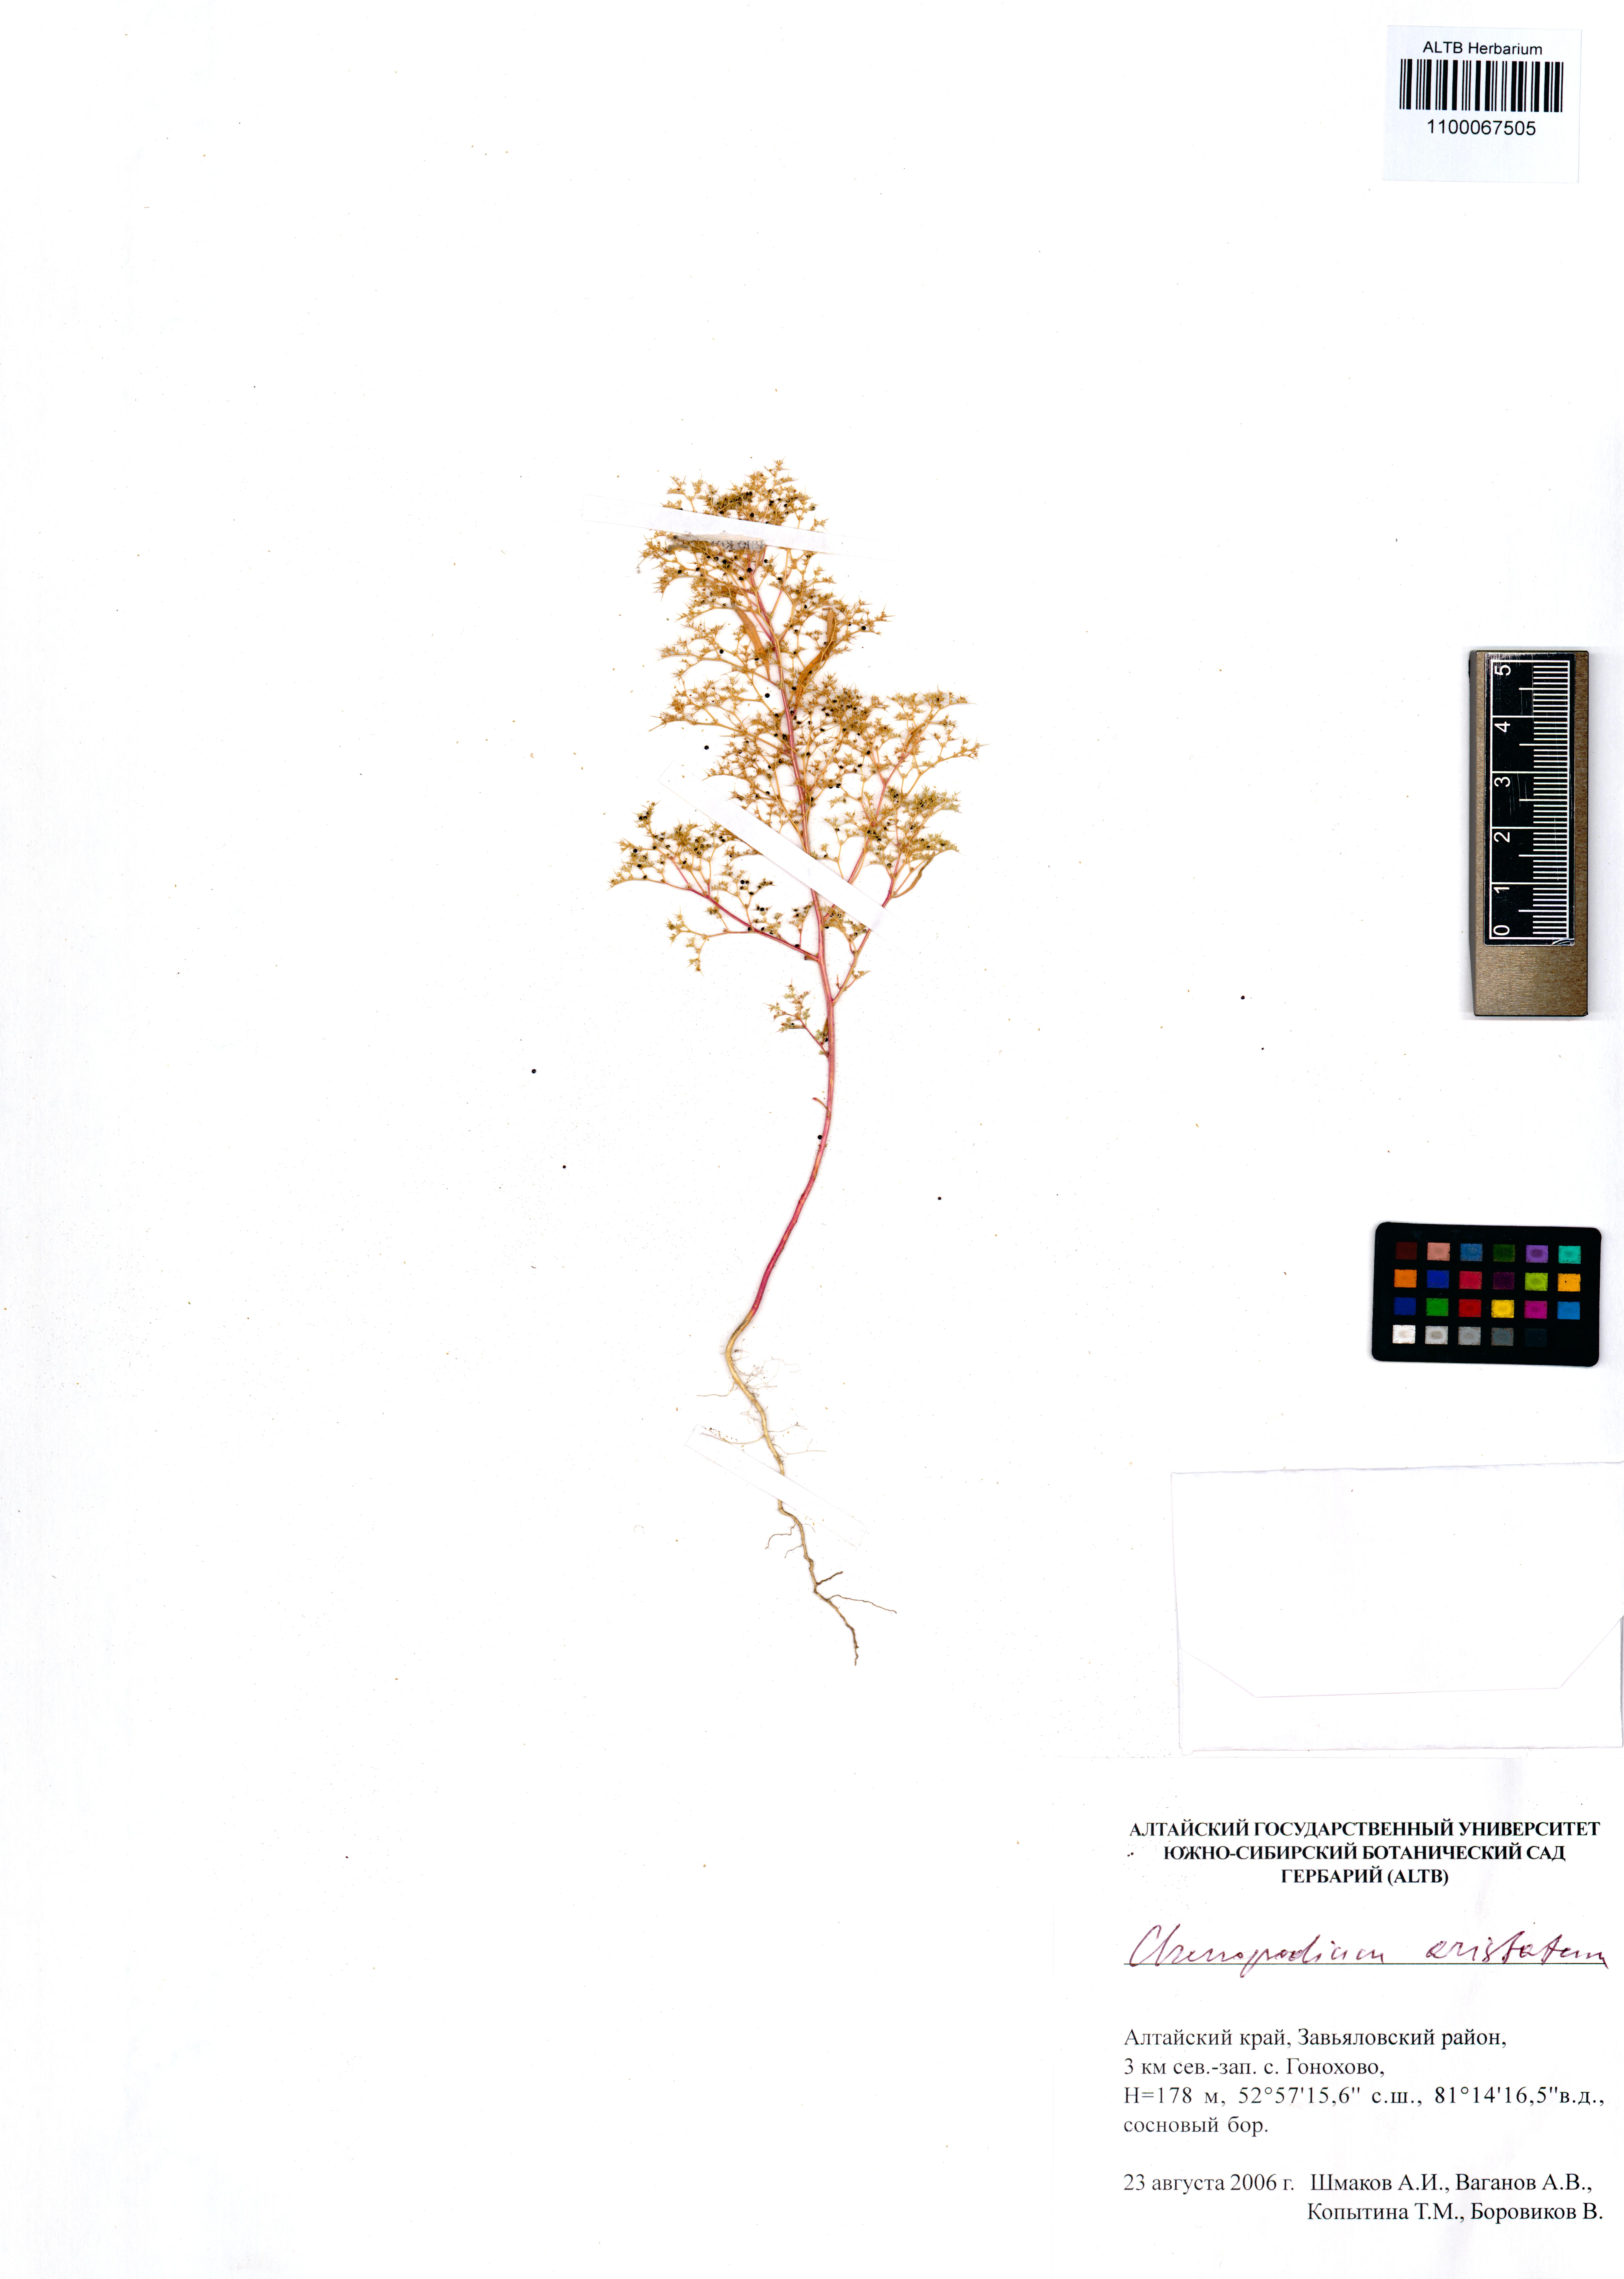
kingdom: Plantae
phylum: Tracheophyta
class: Magnoliopsida
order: Caryophyllales
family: Amaranthaceae
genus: Teloxys
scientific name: Teloxys aristata
